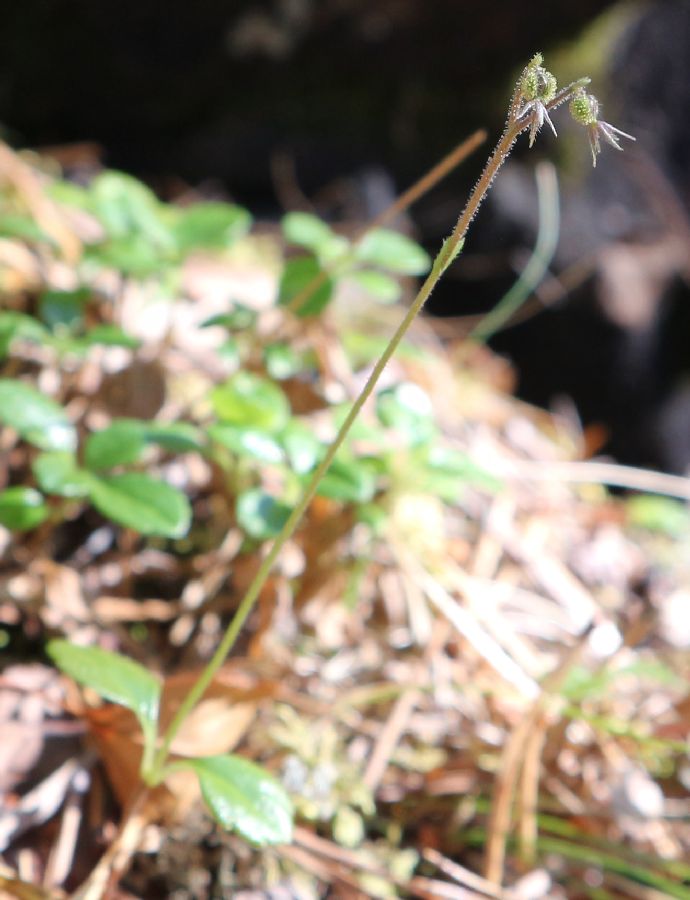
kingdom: Plantae
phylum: Tracheophyta
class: Magnoliopsida
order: Dipsacales
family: Caprifoliaceae
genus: Linnaea
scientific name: Linnaea borealis
